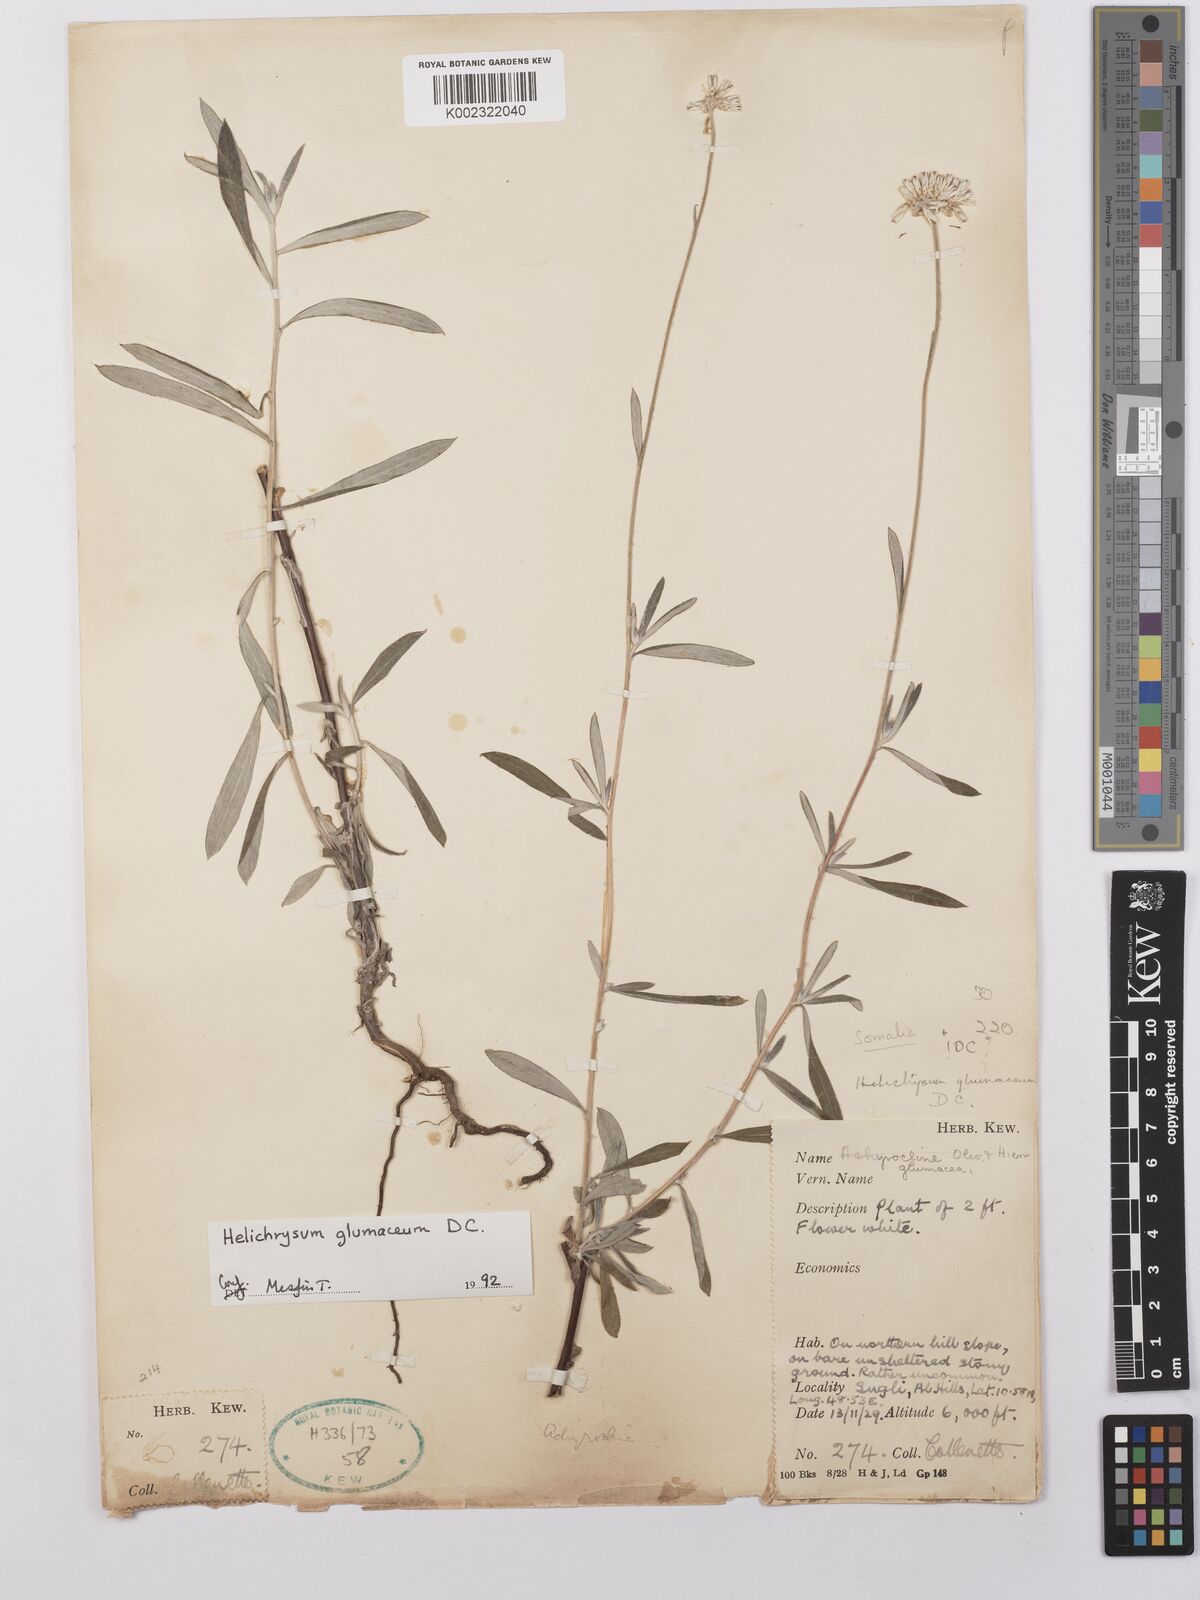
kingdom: Plantae
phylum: Tracheophyta
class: Magnoliopsida
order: Asterales
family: Asteraceae
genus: Helichrysum
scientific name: Helichrysum
